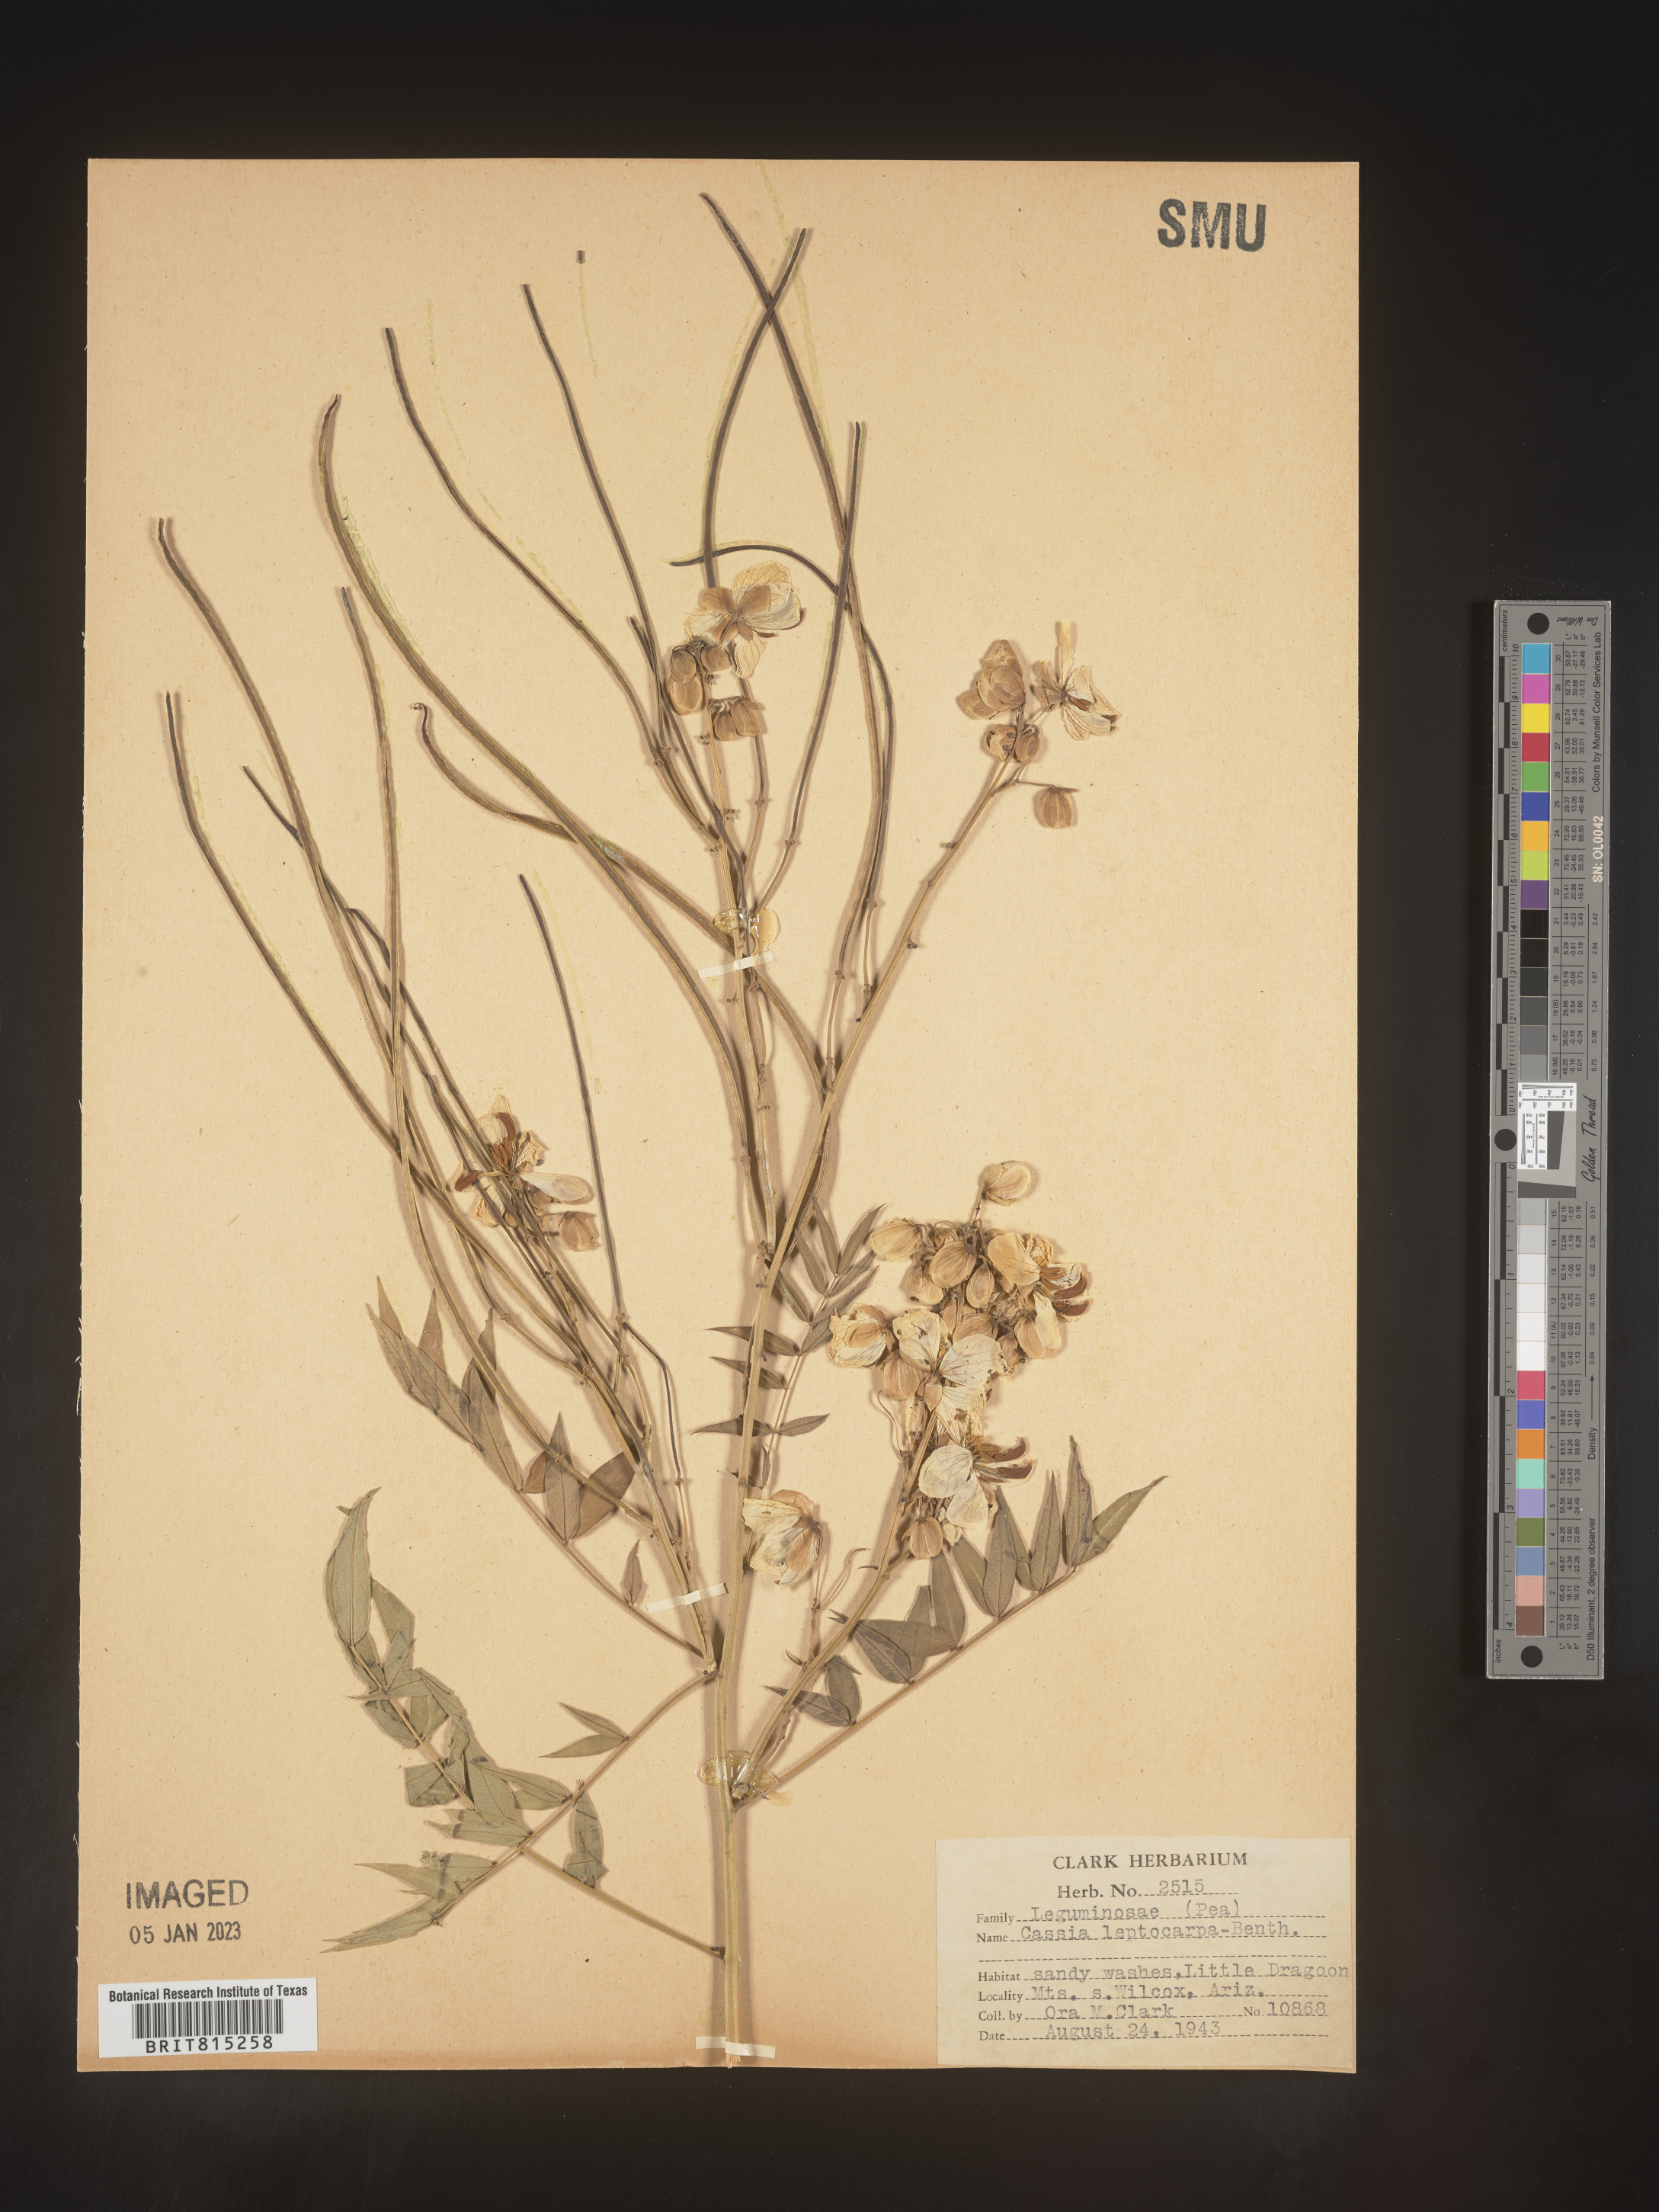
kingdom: Plantae
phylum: Tracheophyta
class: Magnoliopsida
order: Fabales
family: Fabaceae
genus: Cassia
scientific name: Cassia
